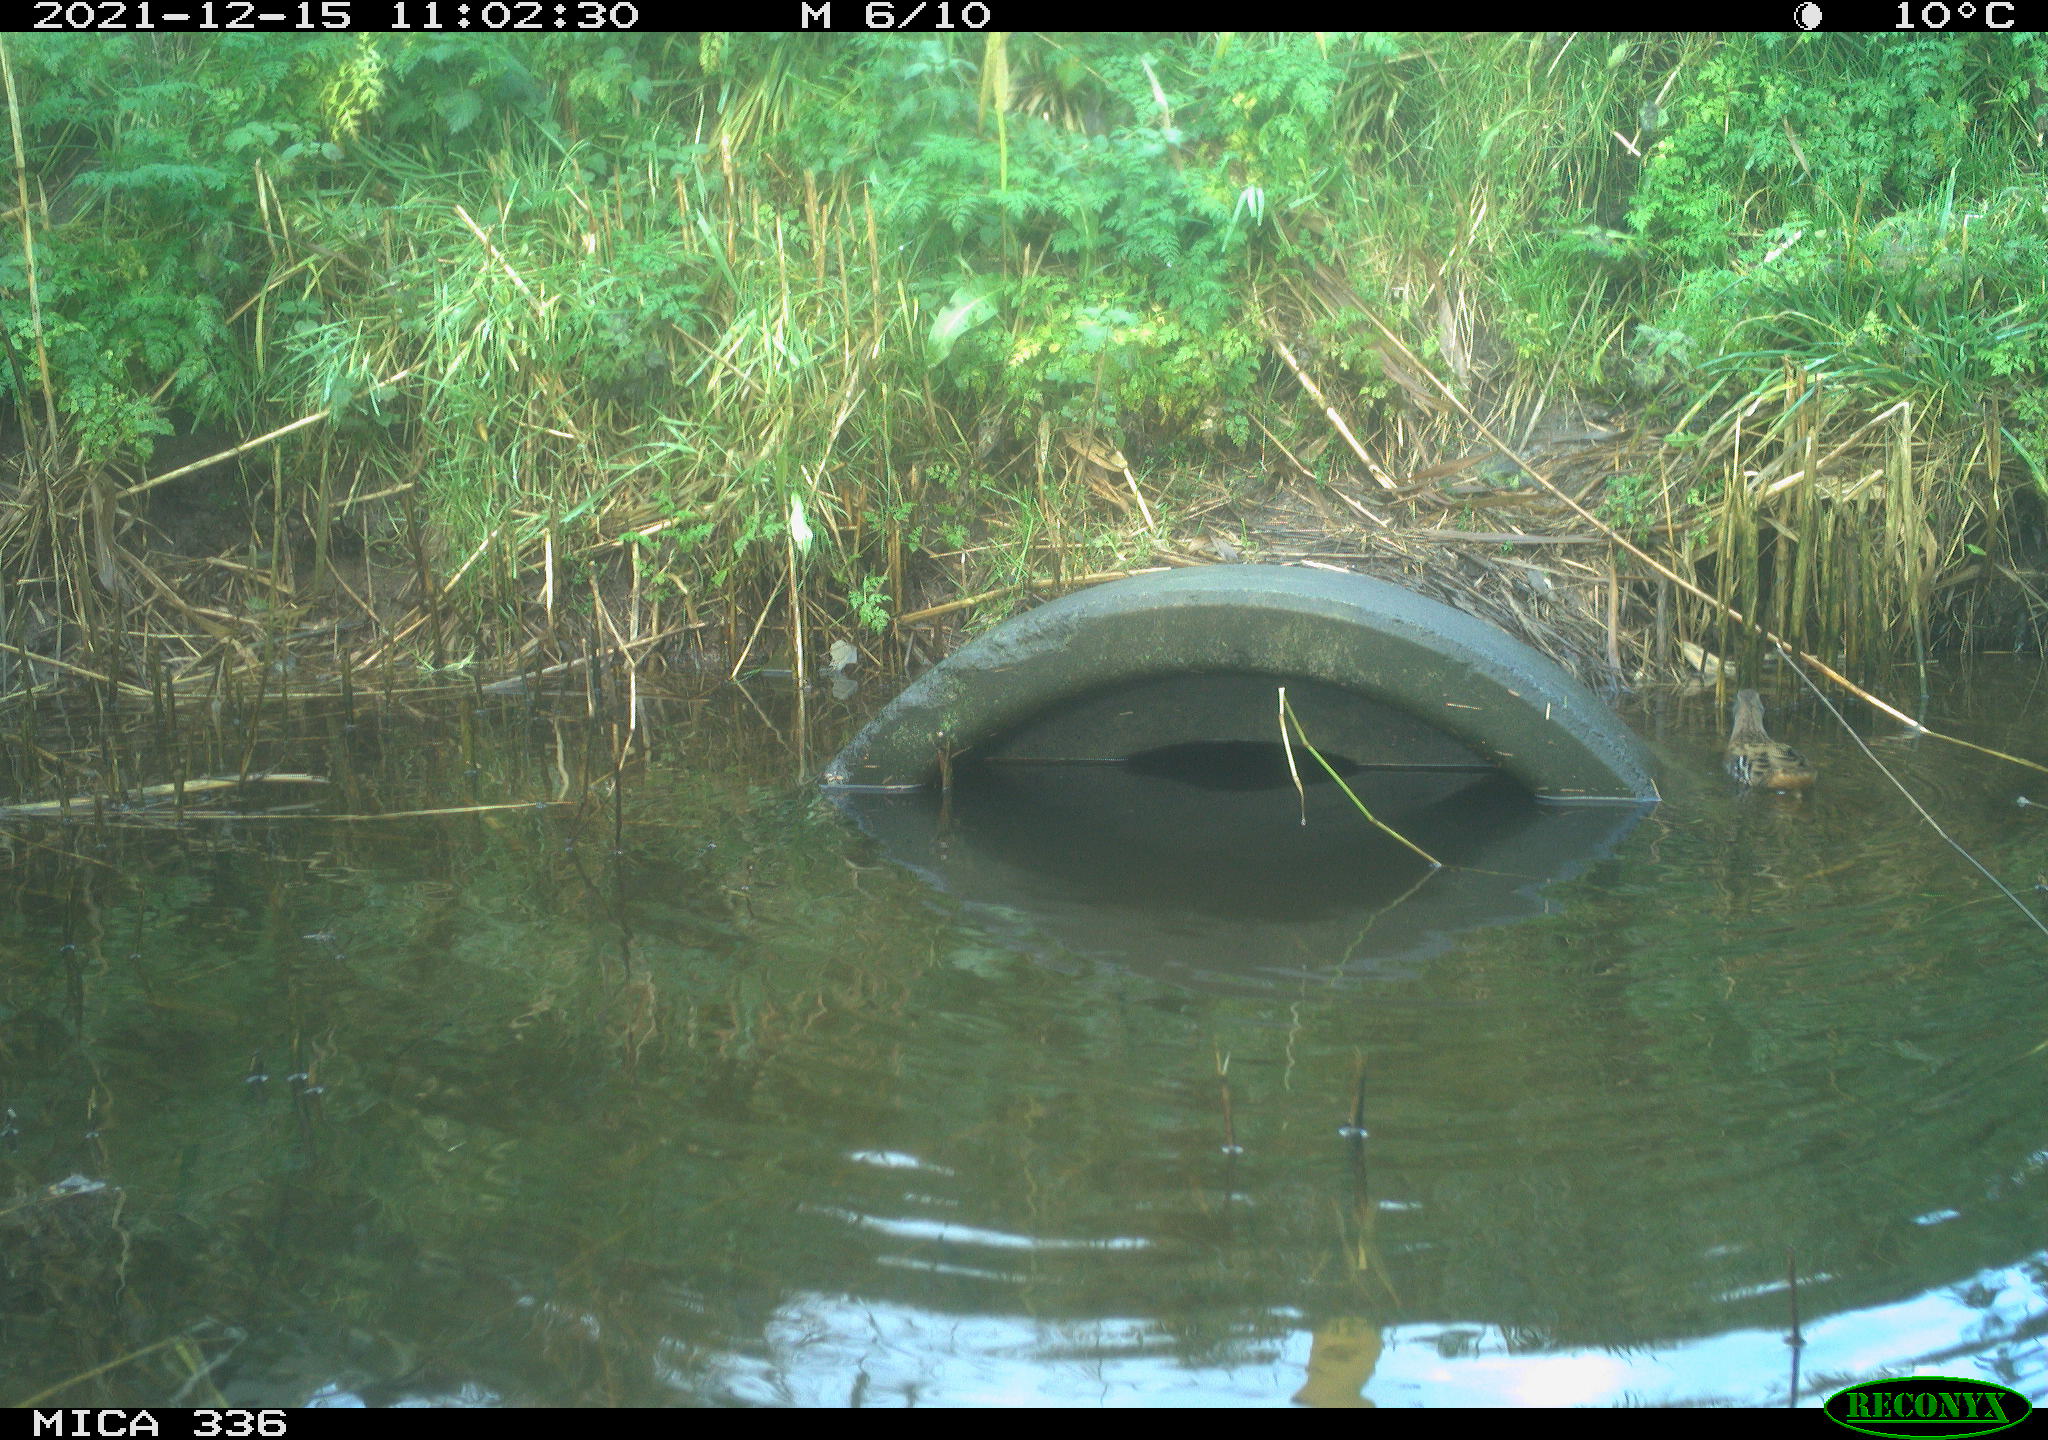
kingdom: Animalia
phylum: Chordata
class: Aves
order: Gruiformes
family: Rallidae
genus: Gallinula
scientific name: Gallinula chloropus
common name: Common moorhen
